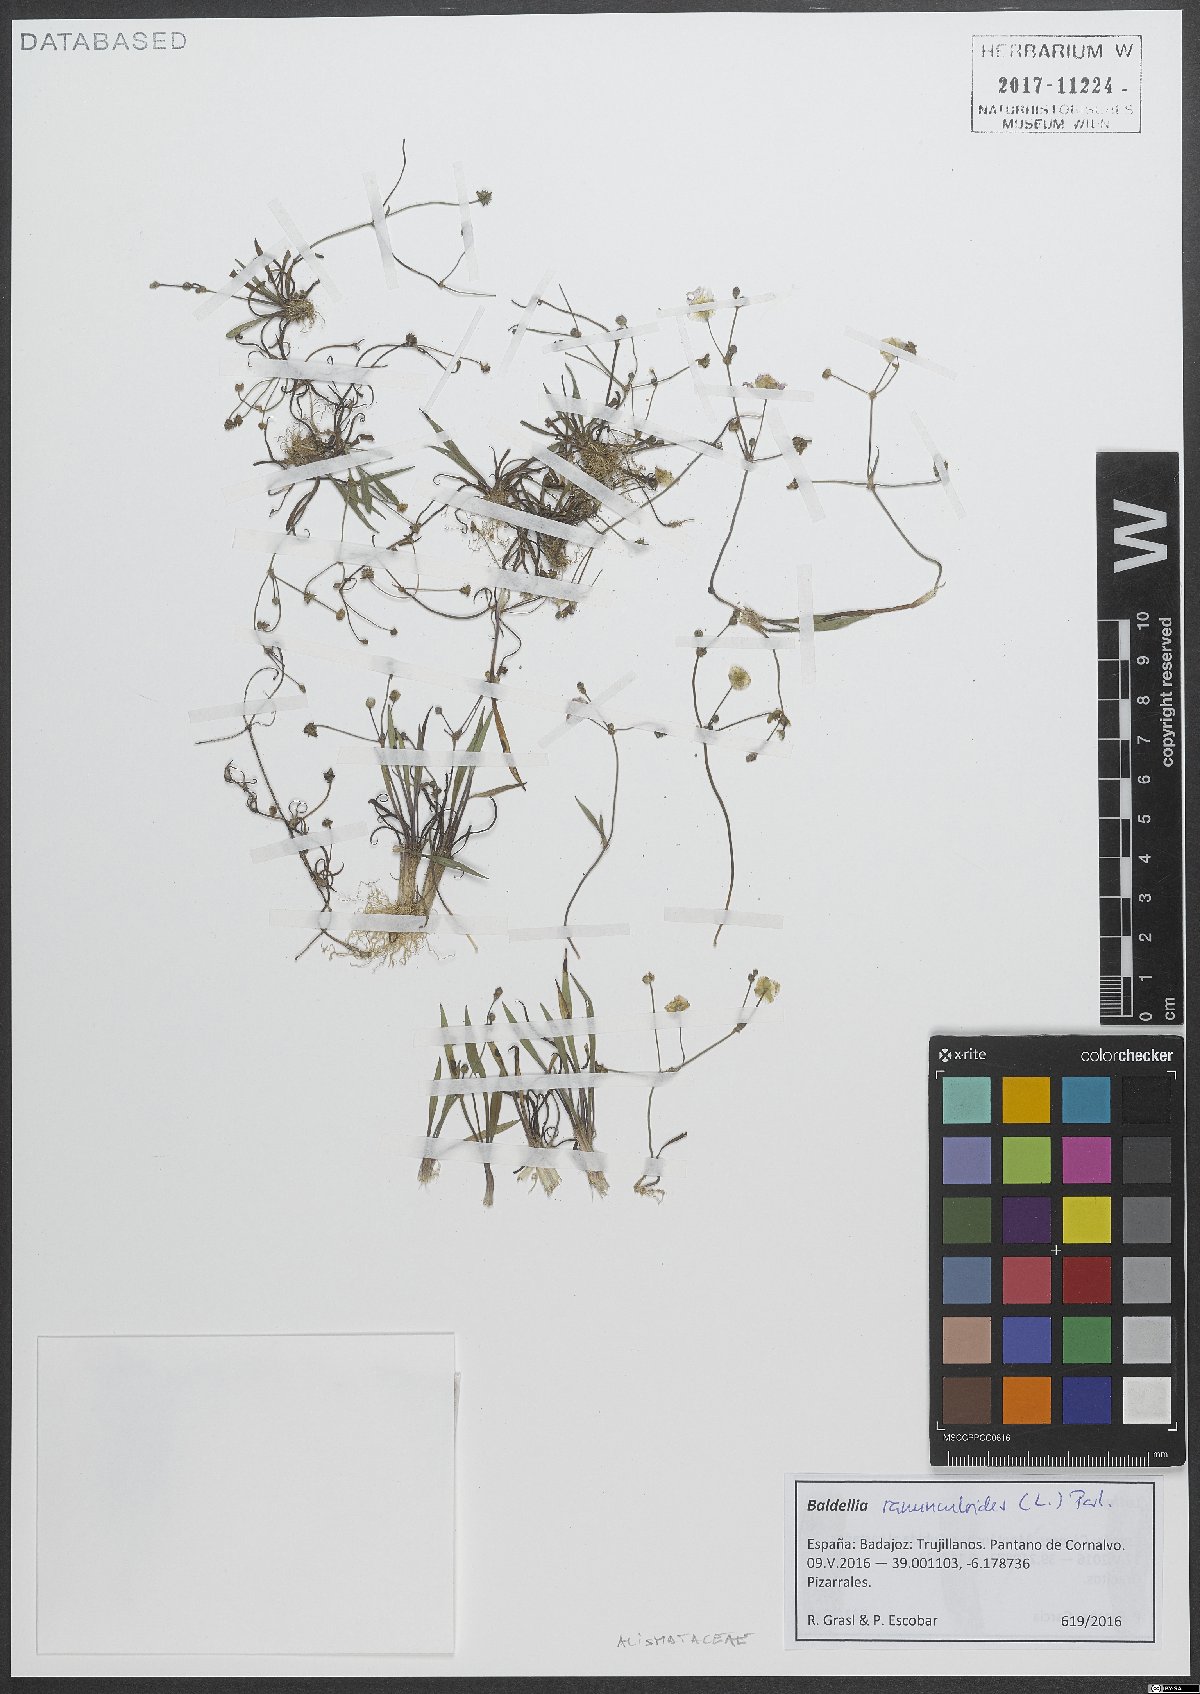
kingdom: Plantae
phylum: Tracheophyta
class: Liliopsida
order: Alismatales
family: Alismataceae
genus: Baldellia
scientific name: Baldellia ranunculoides
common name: Lesser water-plantain
